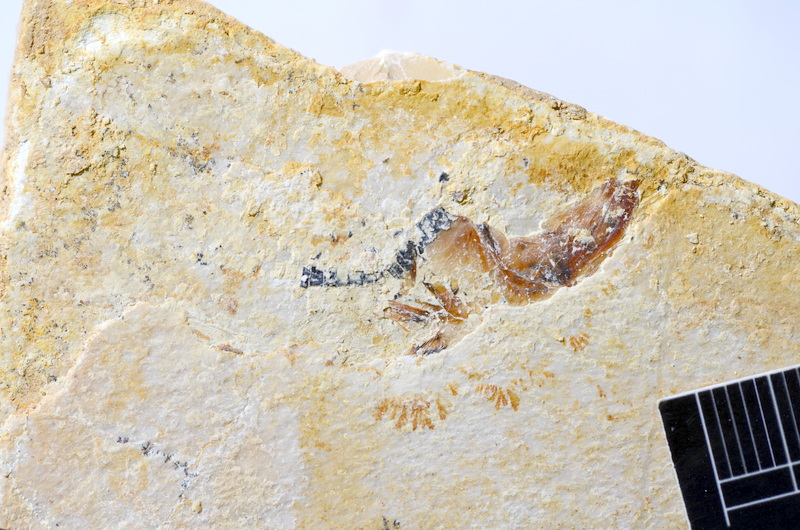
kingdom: Animalia
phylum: Chordata
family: Ascalaboidae
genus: Ebertichthys
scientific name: Ebertichthys ettlingensis
